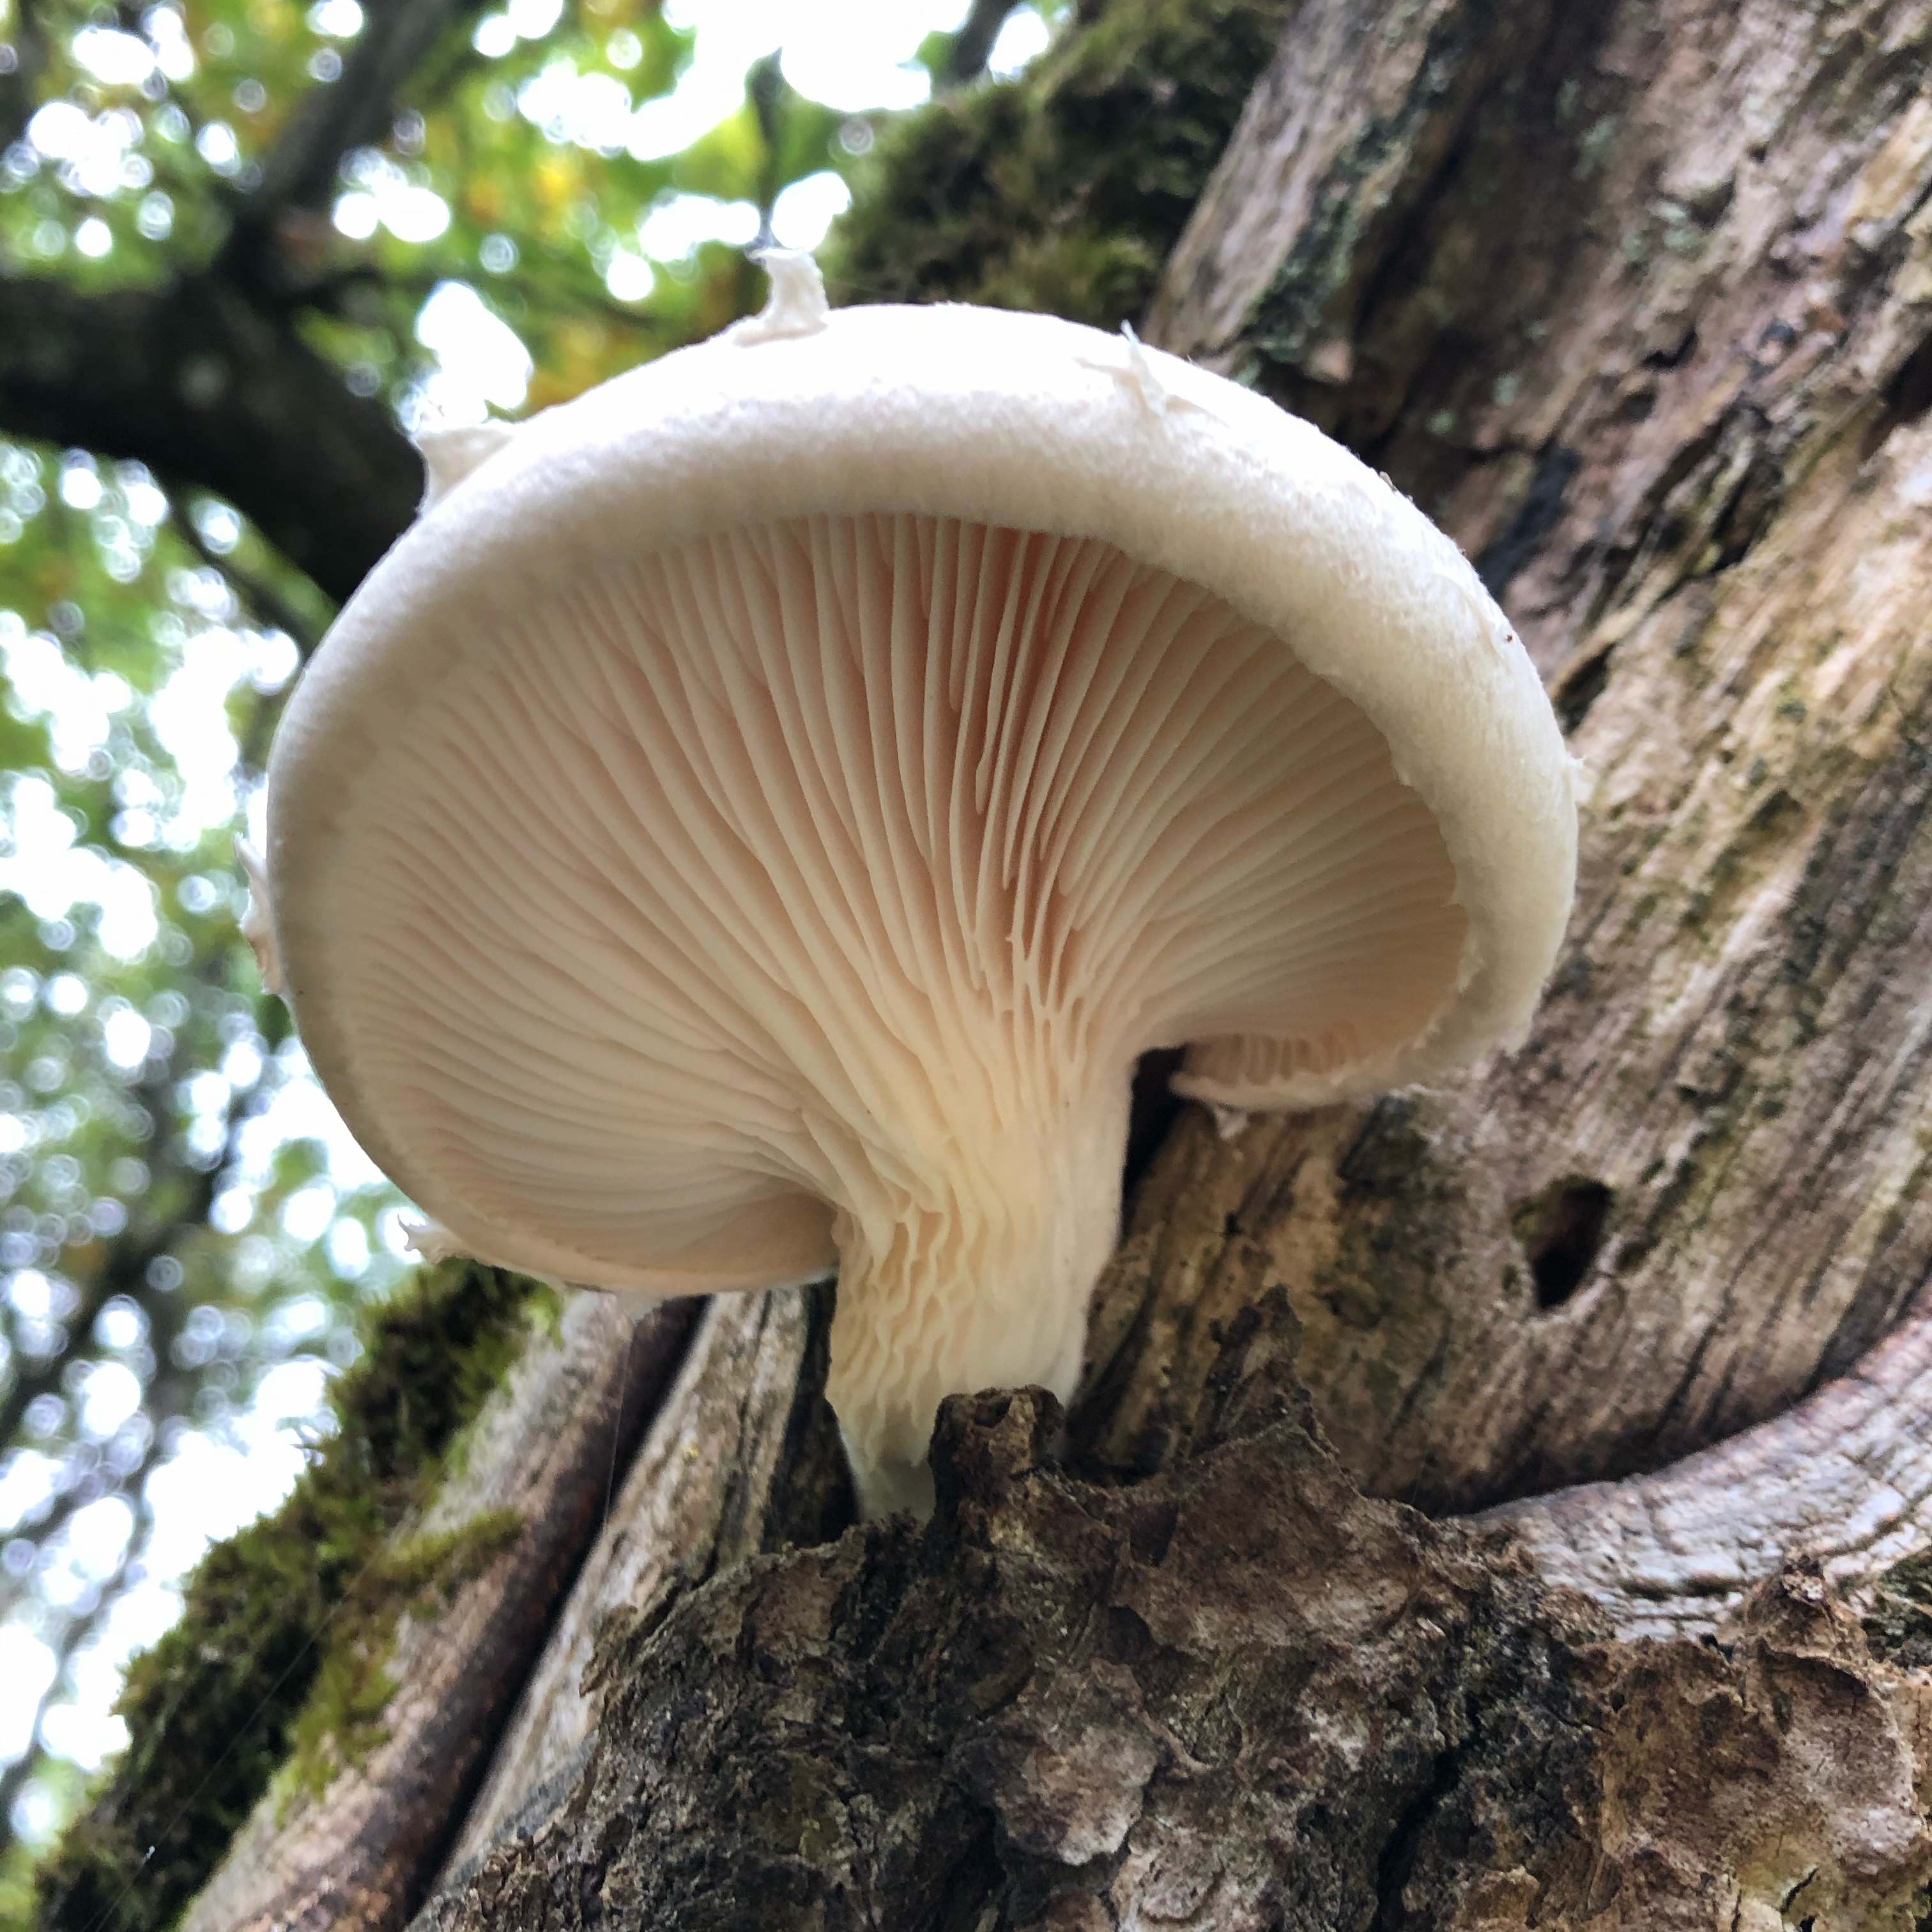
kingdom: Fungi
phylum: Basidiomycota
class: Agaricomycetes
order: Agaricales
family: Pleurotaceae
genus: Pleurotus
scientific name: Pleurotus dryinus
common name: korkagtig østershat
